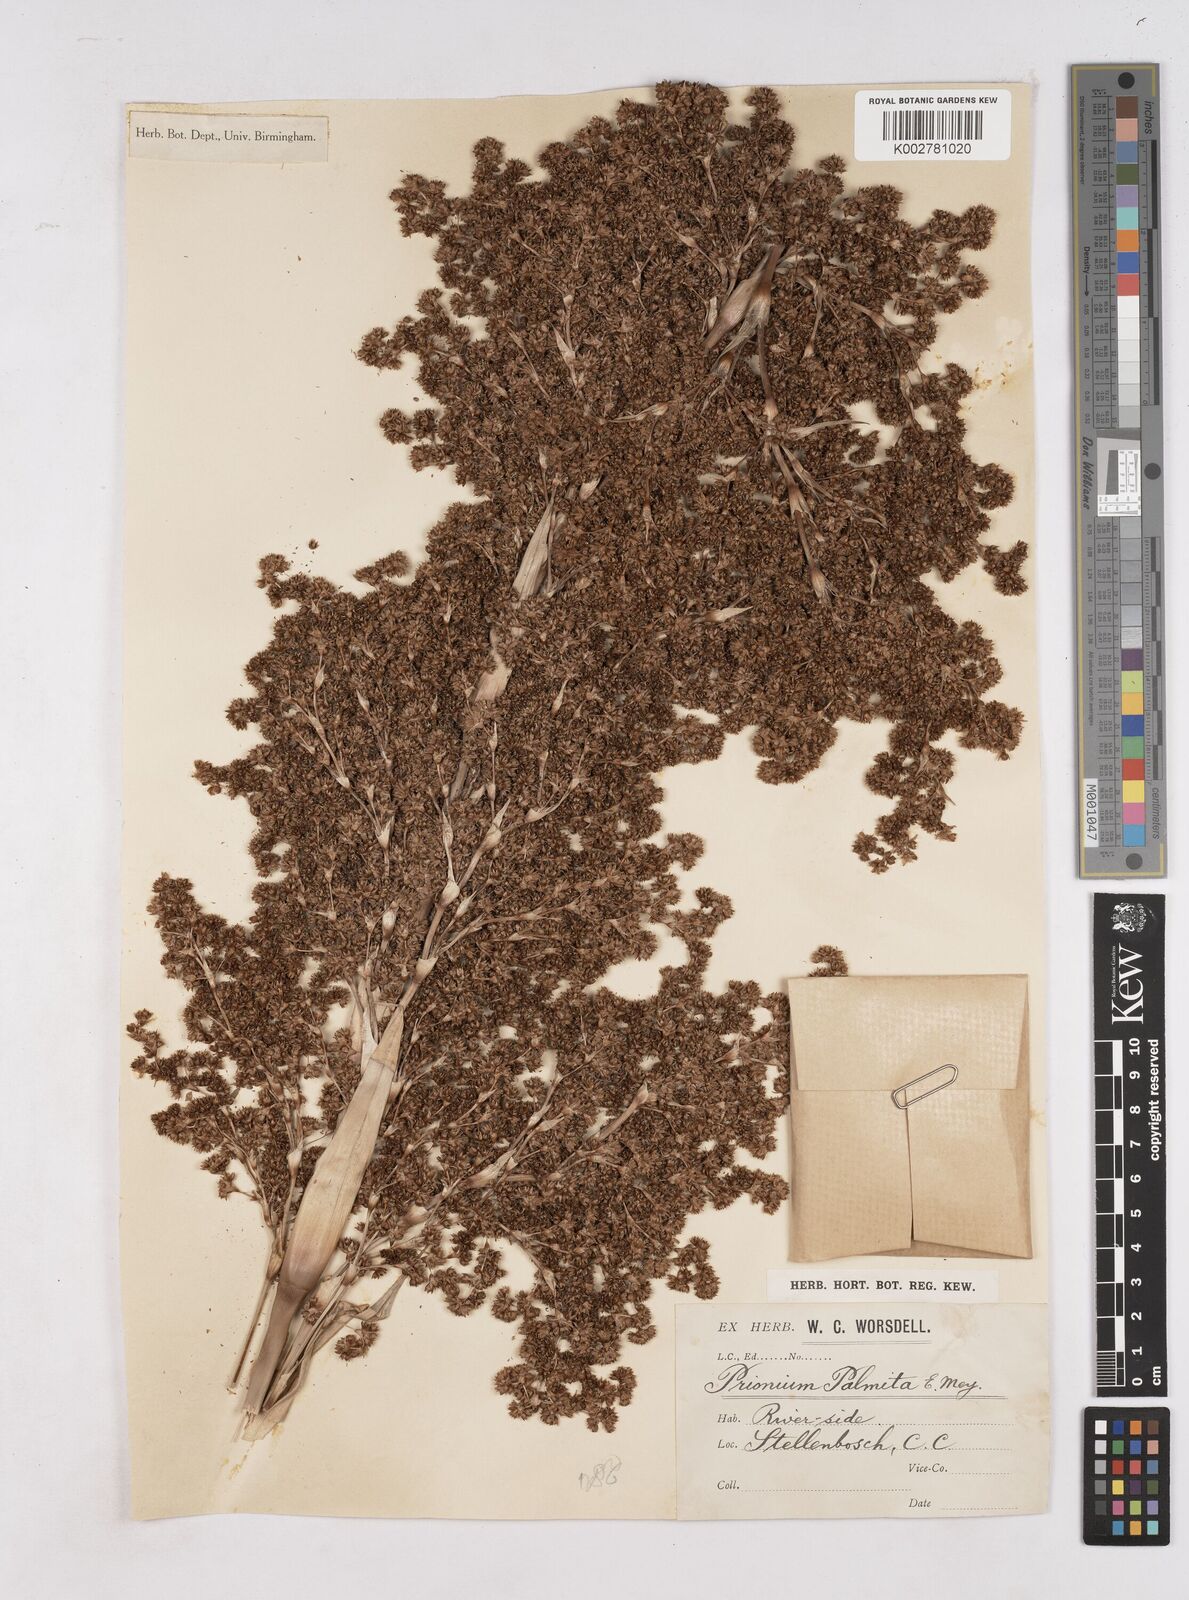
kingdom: Plantae
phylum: Tracheophyta
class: Liliopsida
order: Poales
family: Thurniaceae
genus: Prionium
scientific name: Prionium serratum
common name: Palmiet
